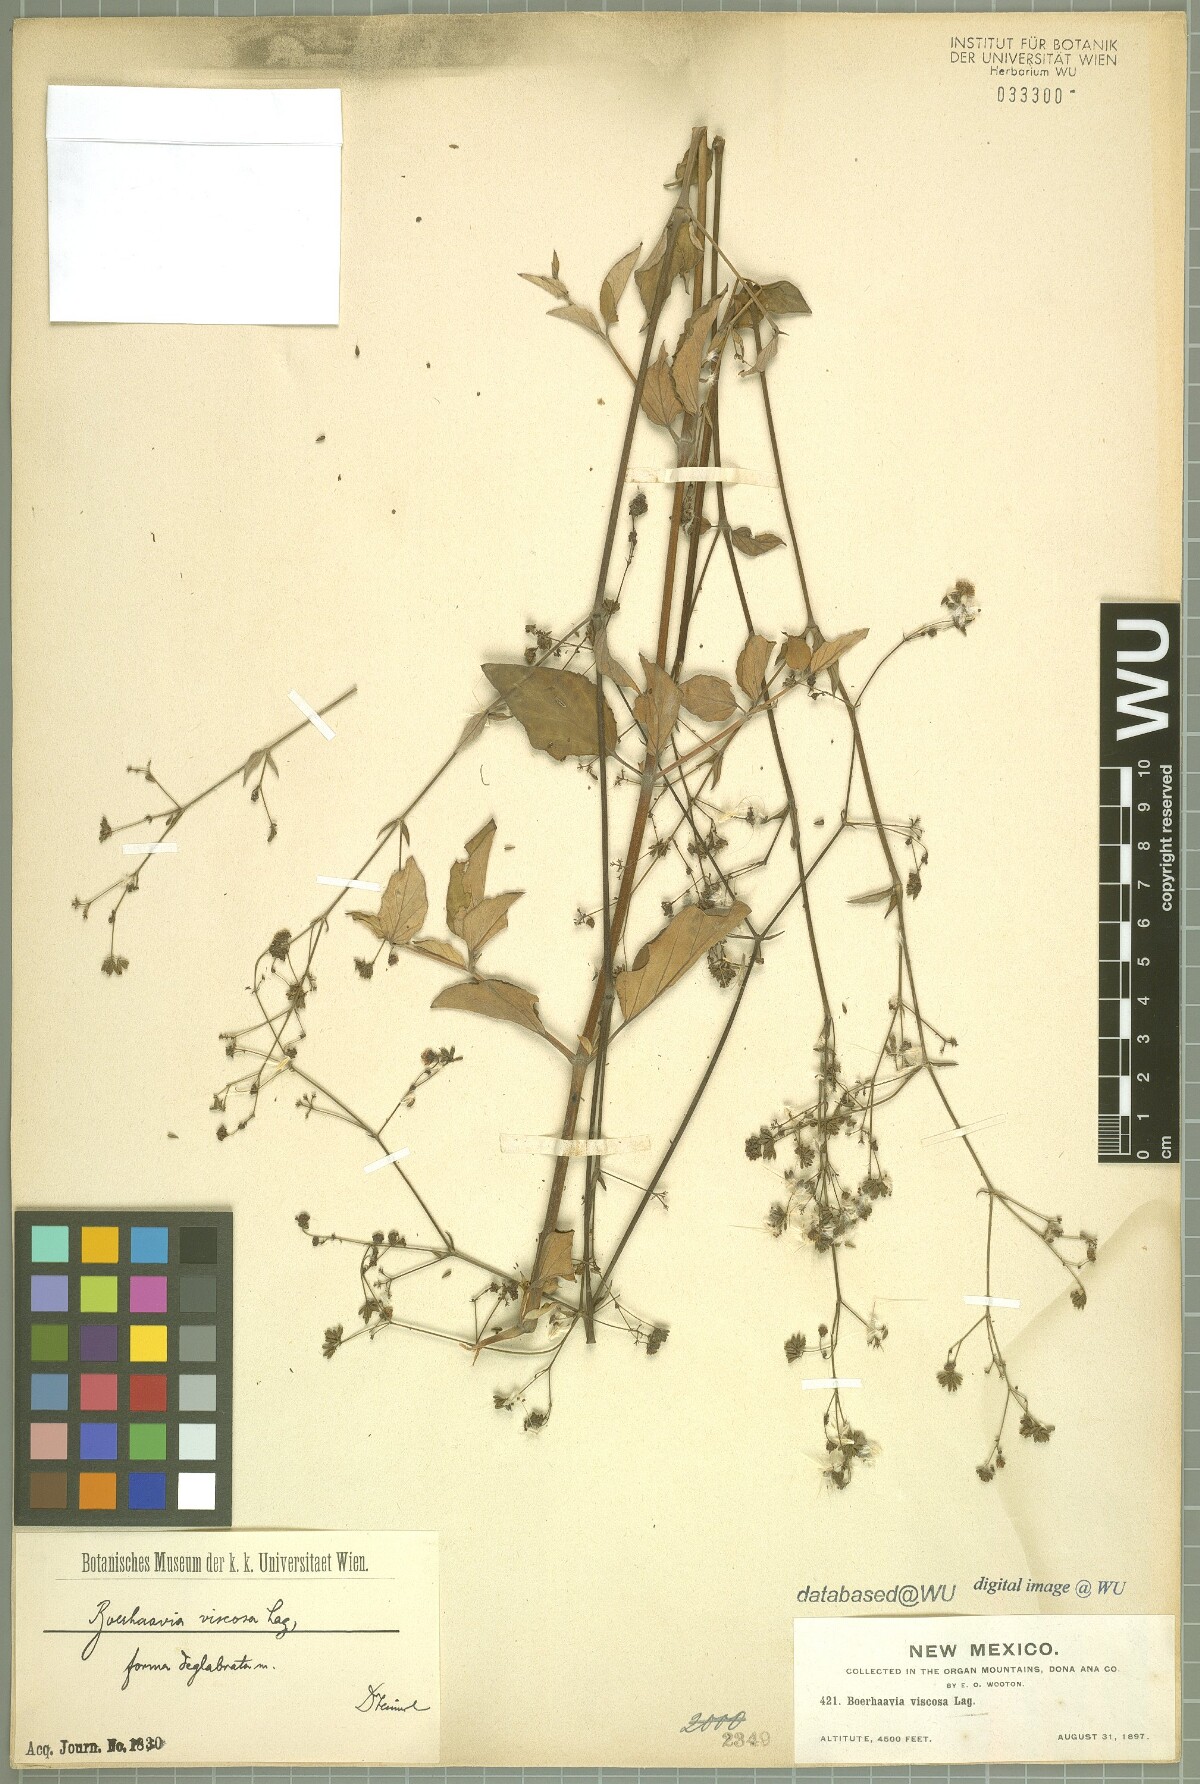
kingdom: Plantae
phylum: Tracheophyta
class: Magnoliopsida
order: Caryophyllales
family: Nyctaginaceae
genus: Boerhavia
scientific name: Boerhavia coccinea
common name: Scarlet spiderling
